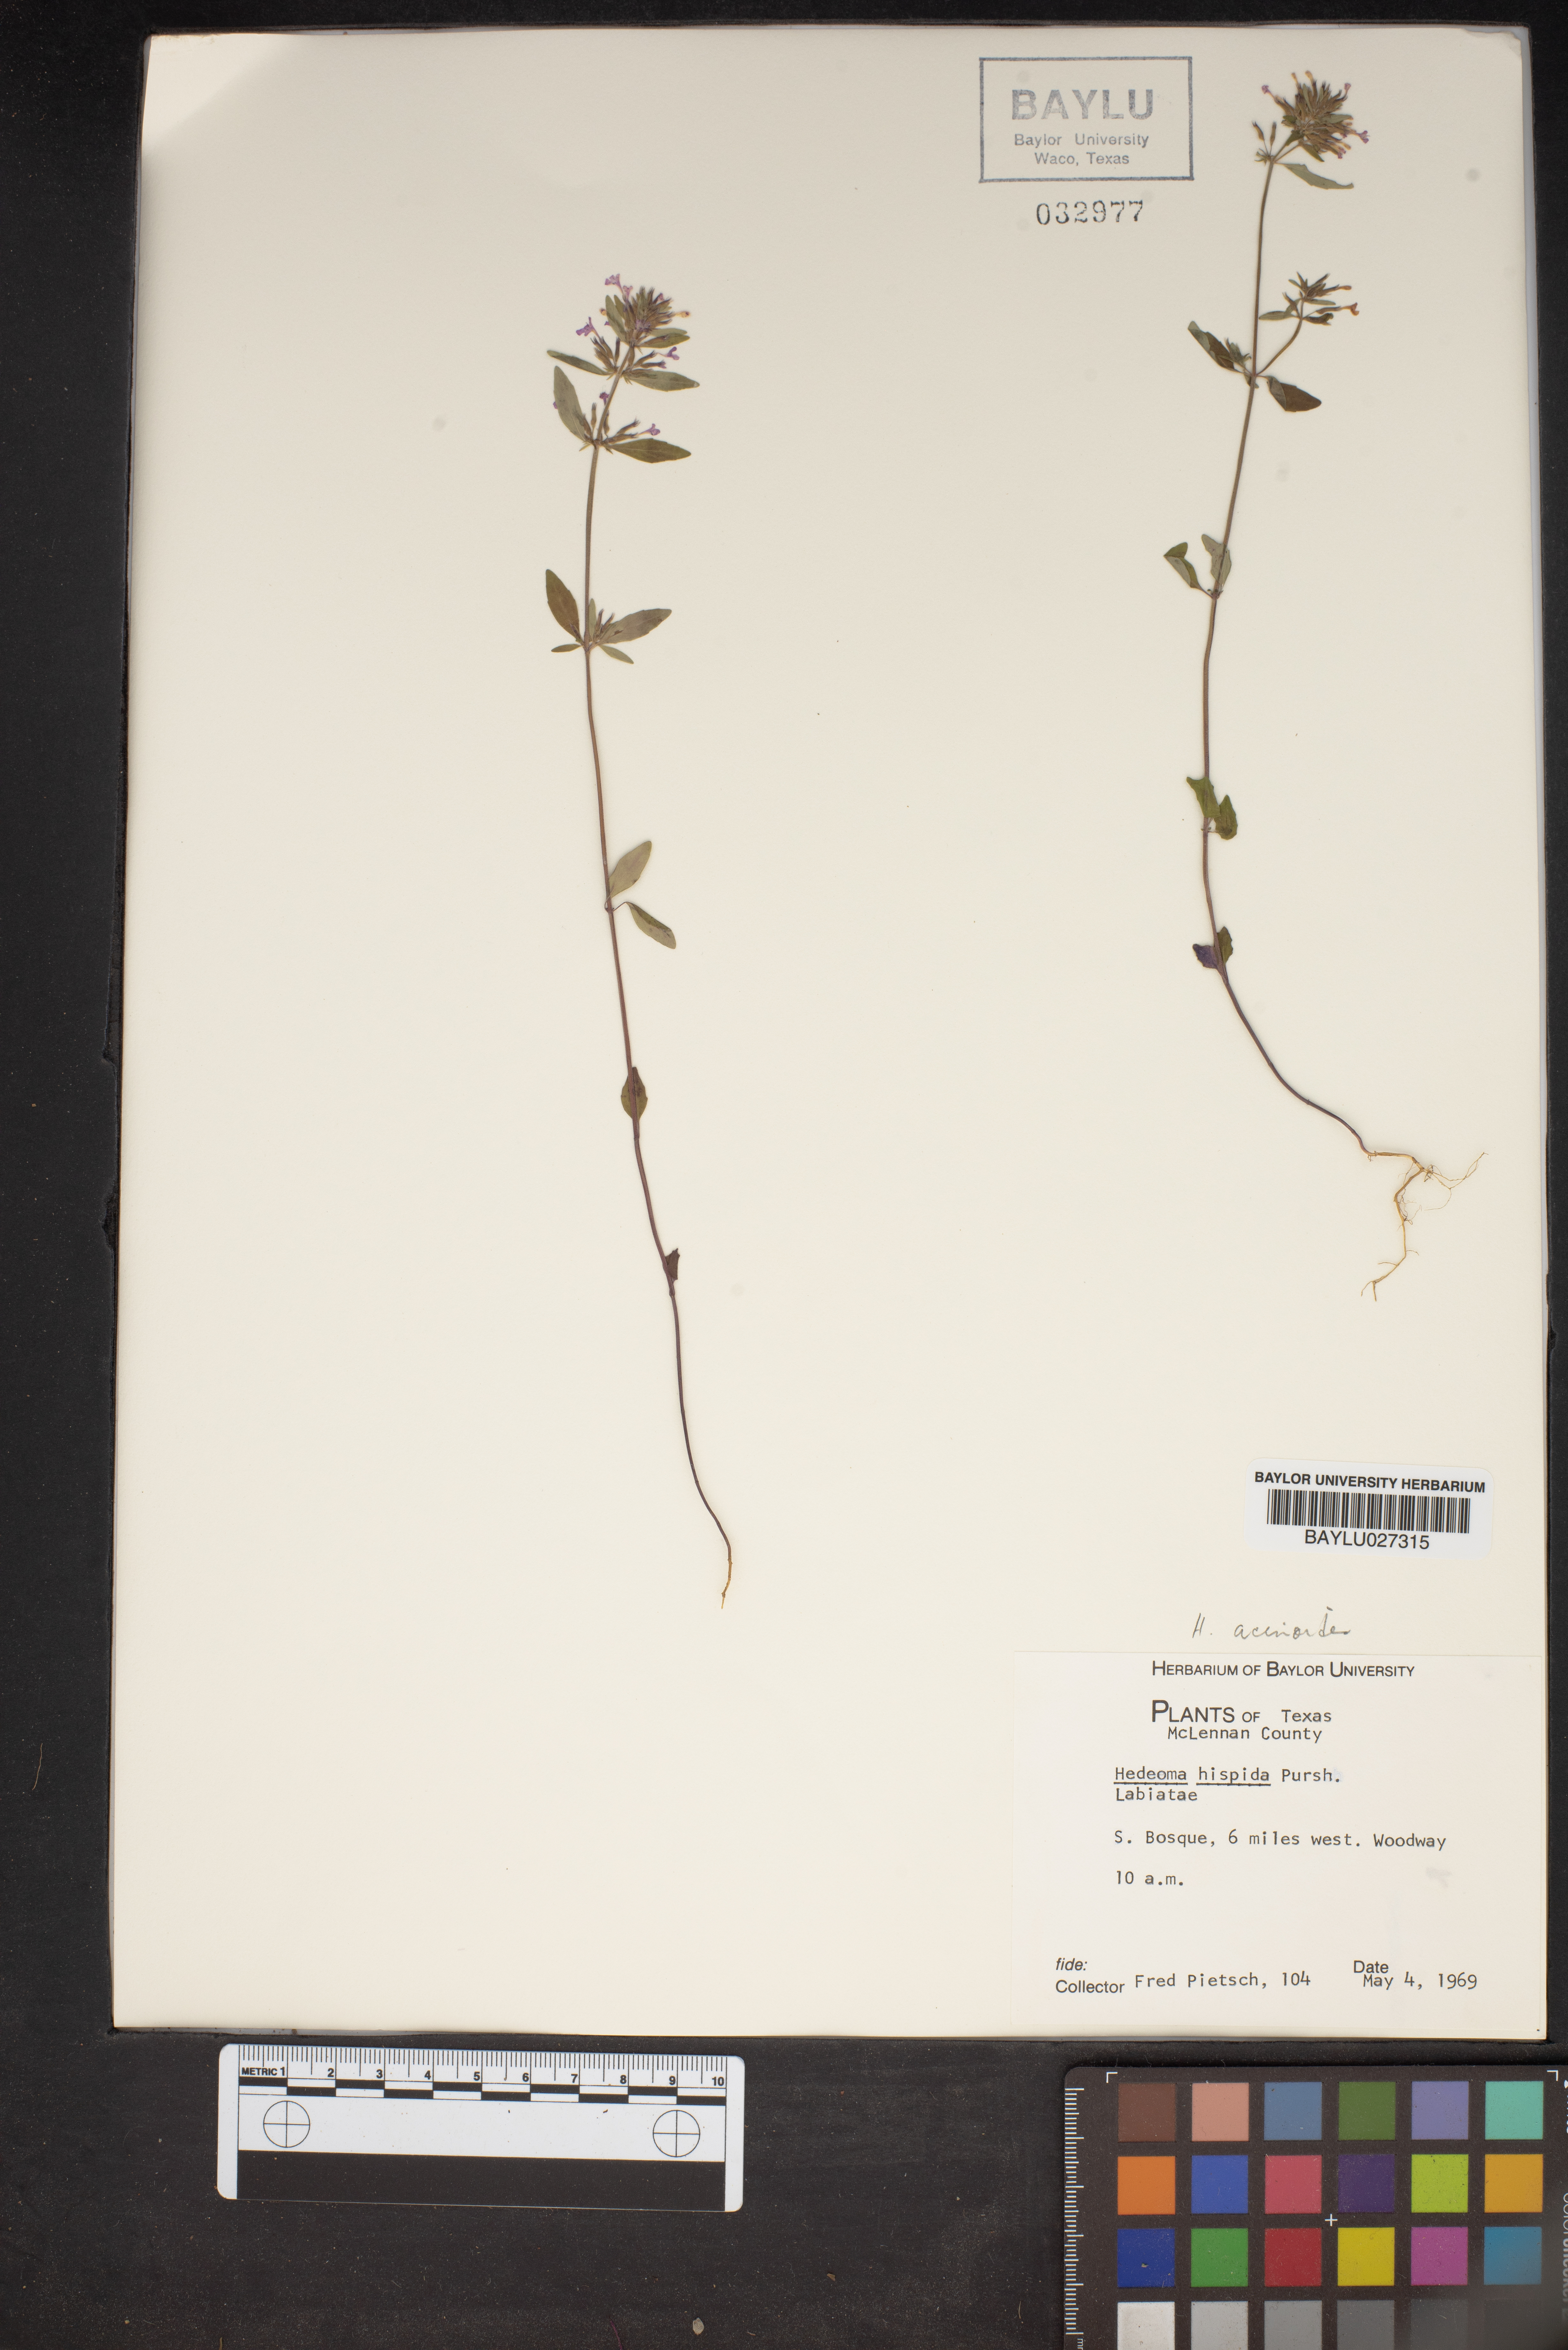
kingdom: Plantae
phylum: Tracheophyta
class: Magnoliopsida
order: Lamiales
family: Lamiaceae
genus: Hedeoma
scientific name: Hedeoma hispida
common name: Mock pennyroyal
